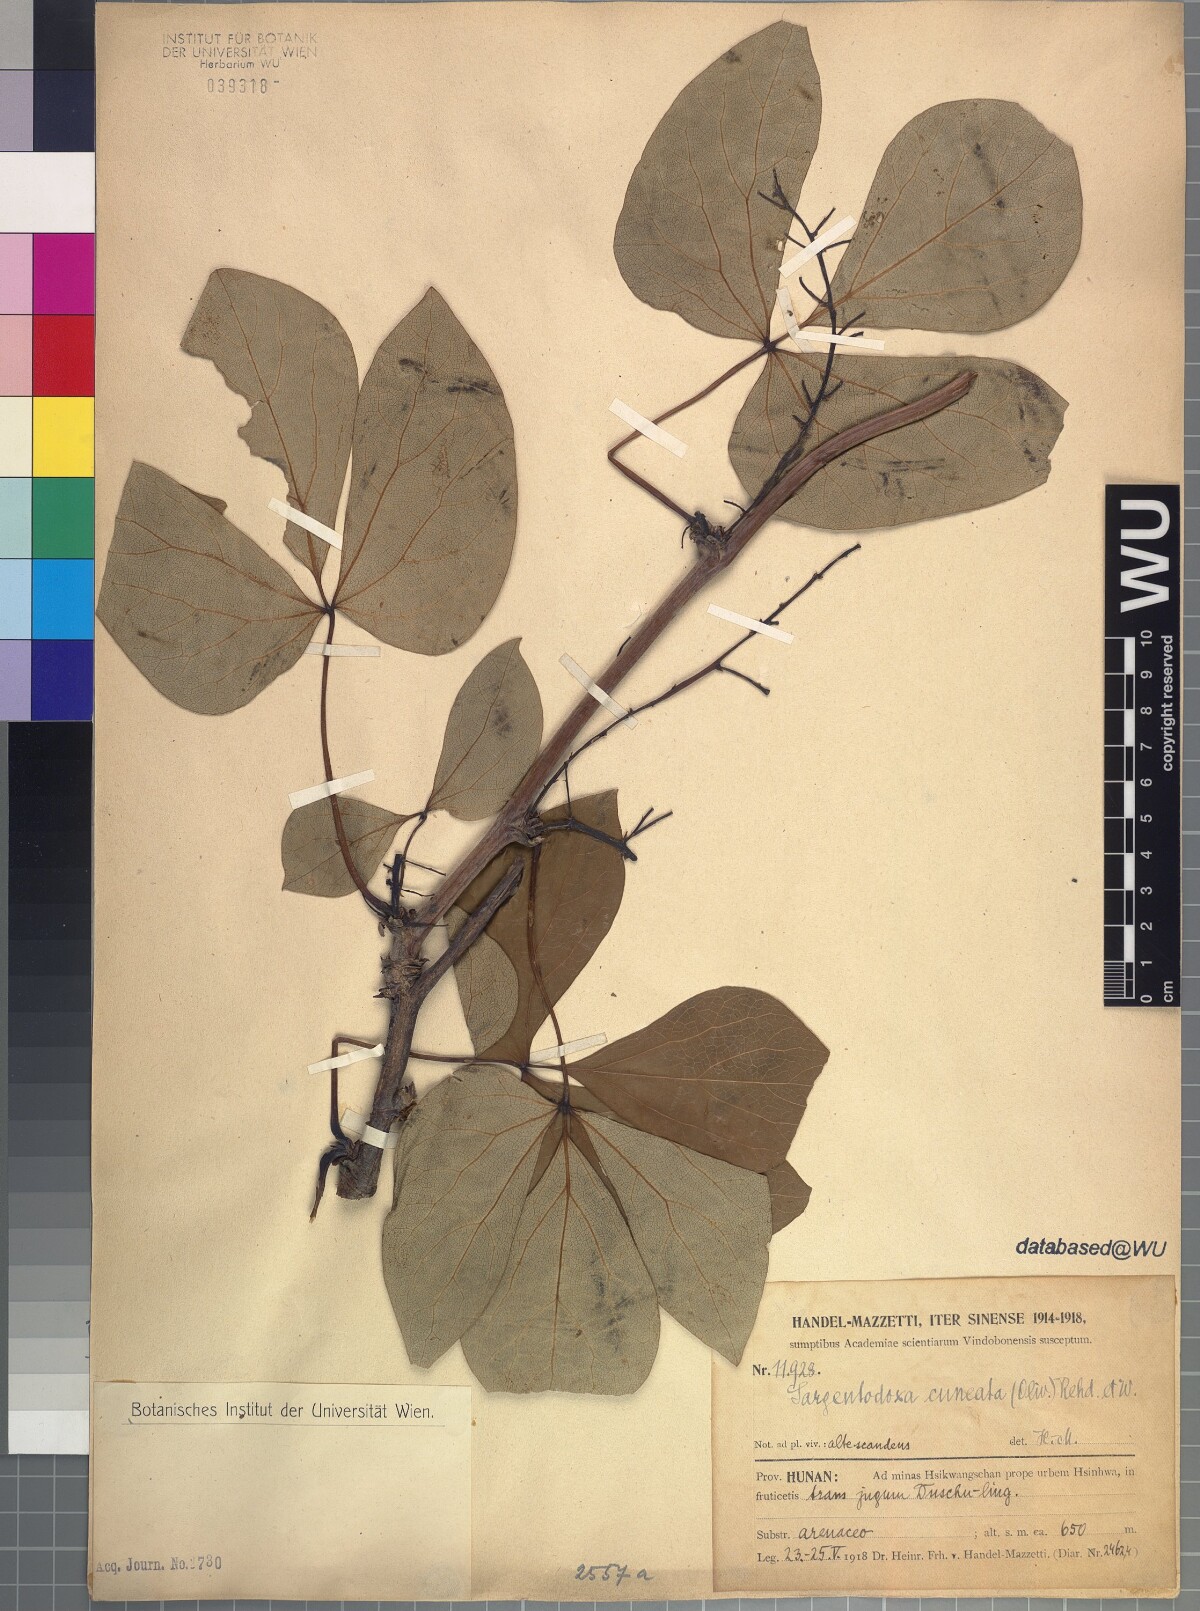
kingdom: Plantae
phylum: Tracheophyta
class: Magnoliopsida
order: Ranunculales
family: Lardizabalaceae
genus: Sargentodoxa
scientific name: Sargentodoxa cuneata
